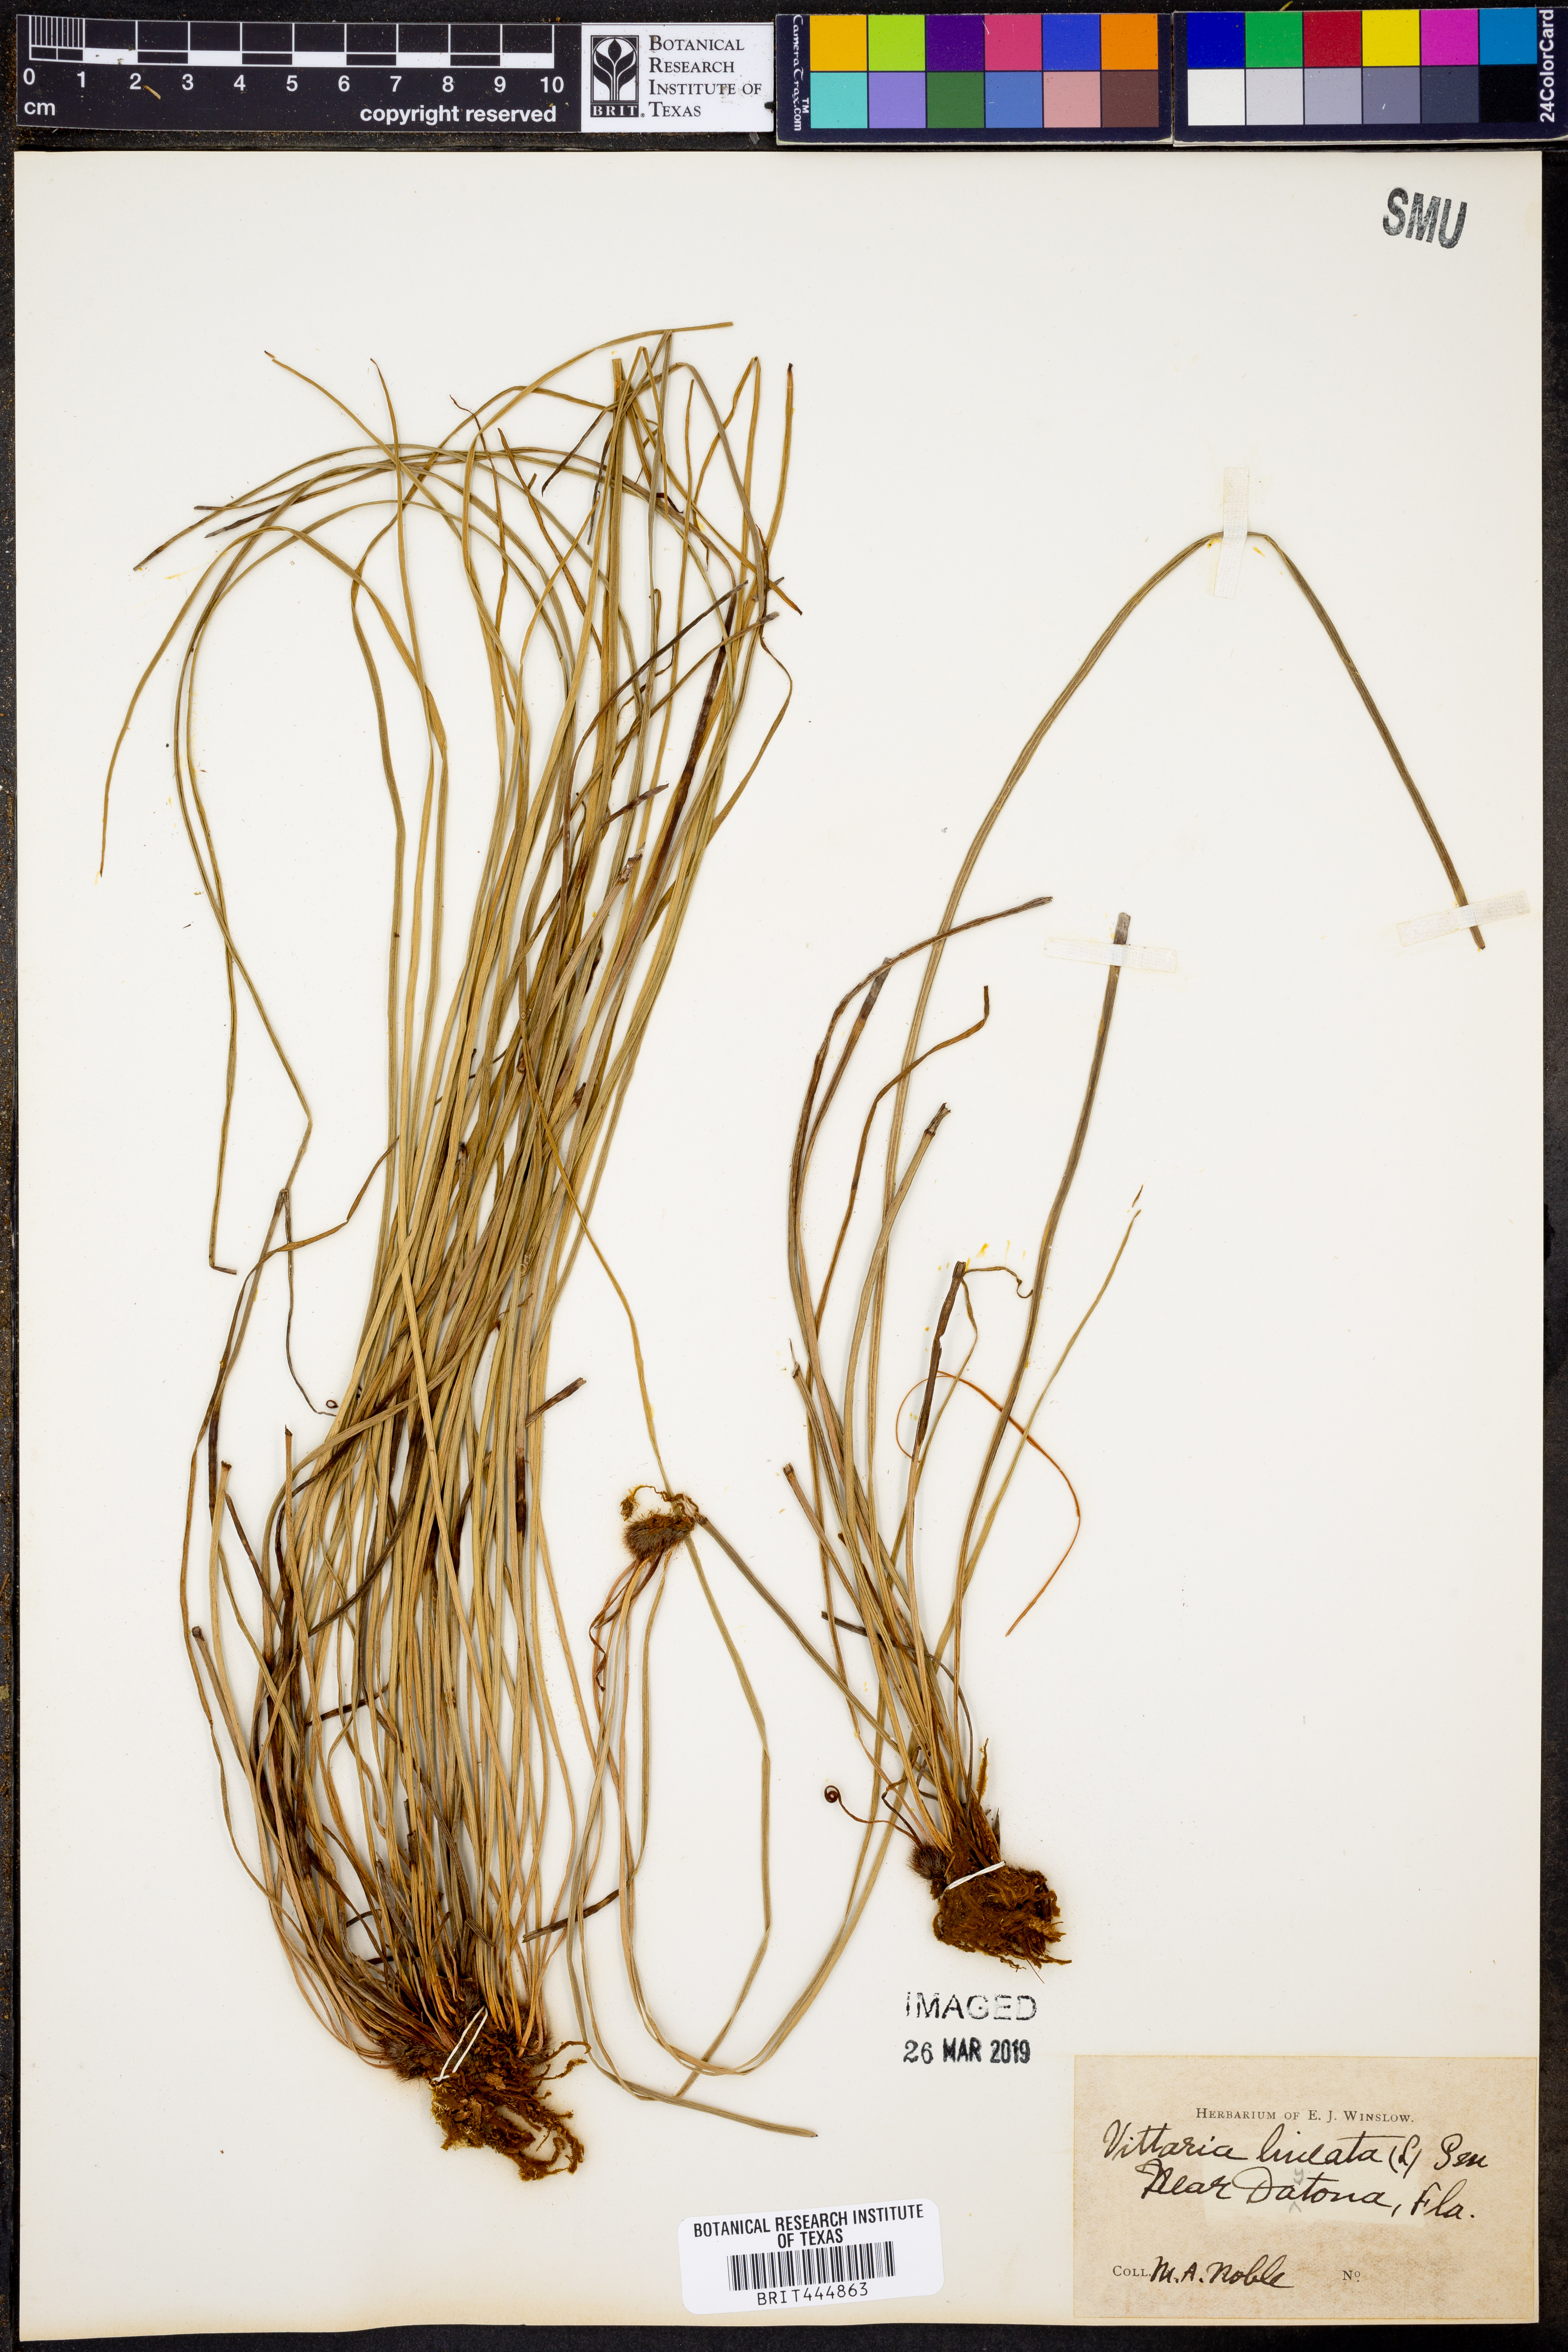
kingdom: Plantae
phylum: Tracheophyta
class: Polypodiopsida
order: Polypodiales
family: Pteridaceae
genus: Vittaria
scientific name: Vittaria lineata
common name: Shoestring fern
